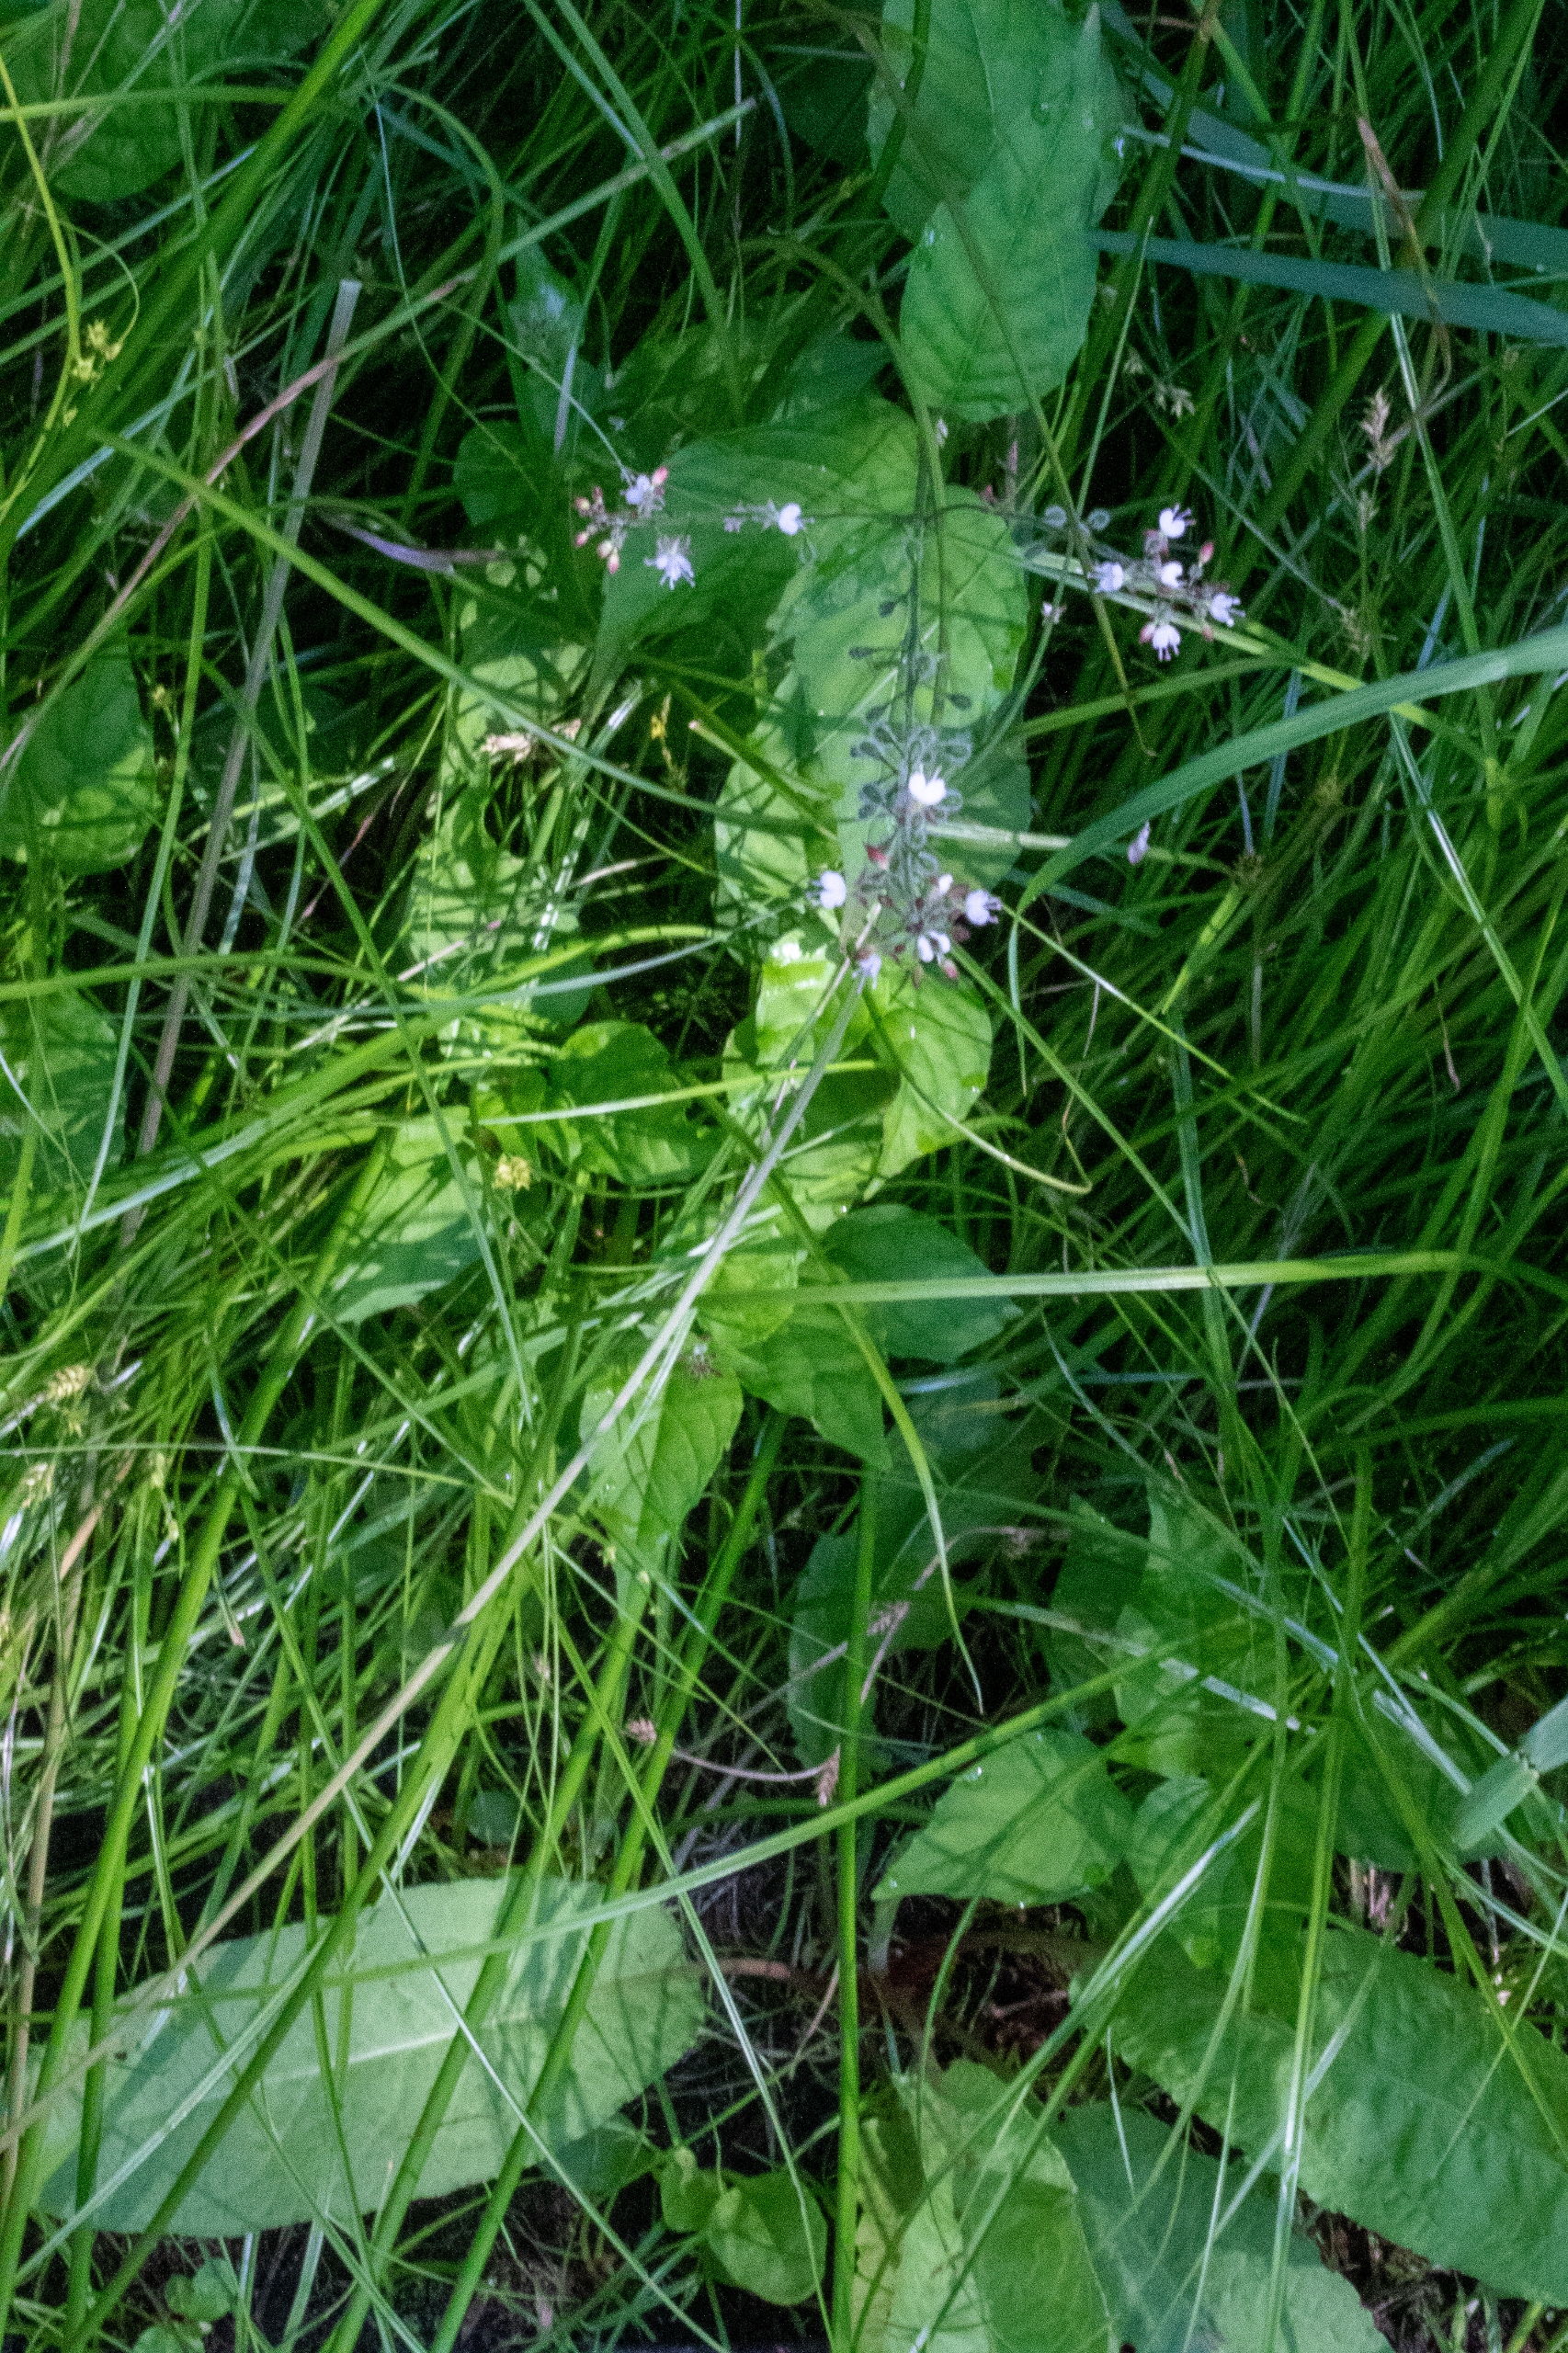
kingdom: Plantae
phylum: Tracheophyta
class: Magnoliopsida
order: Myrtales
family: Onagraceae
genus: Circaea
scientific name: Circaea lutetiana
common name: Dunet steffensurt
